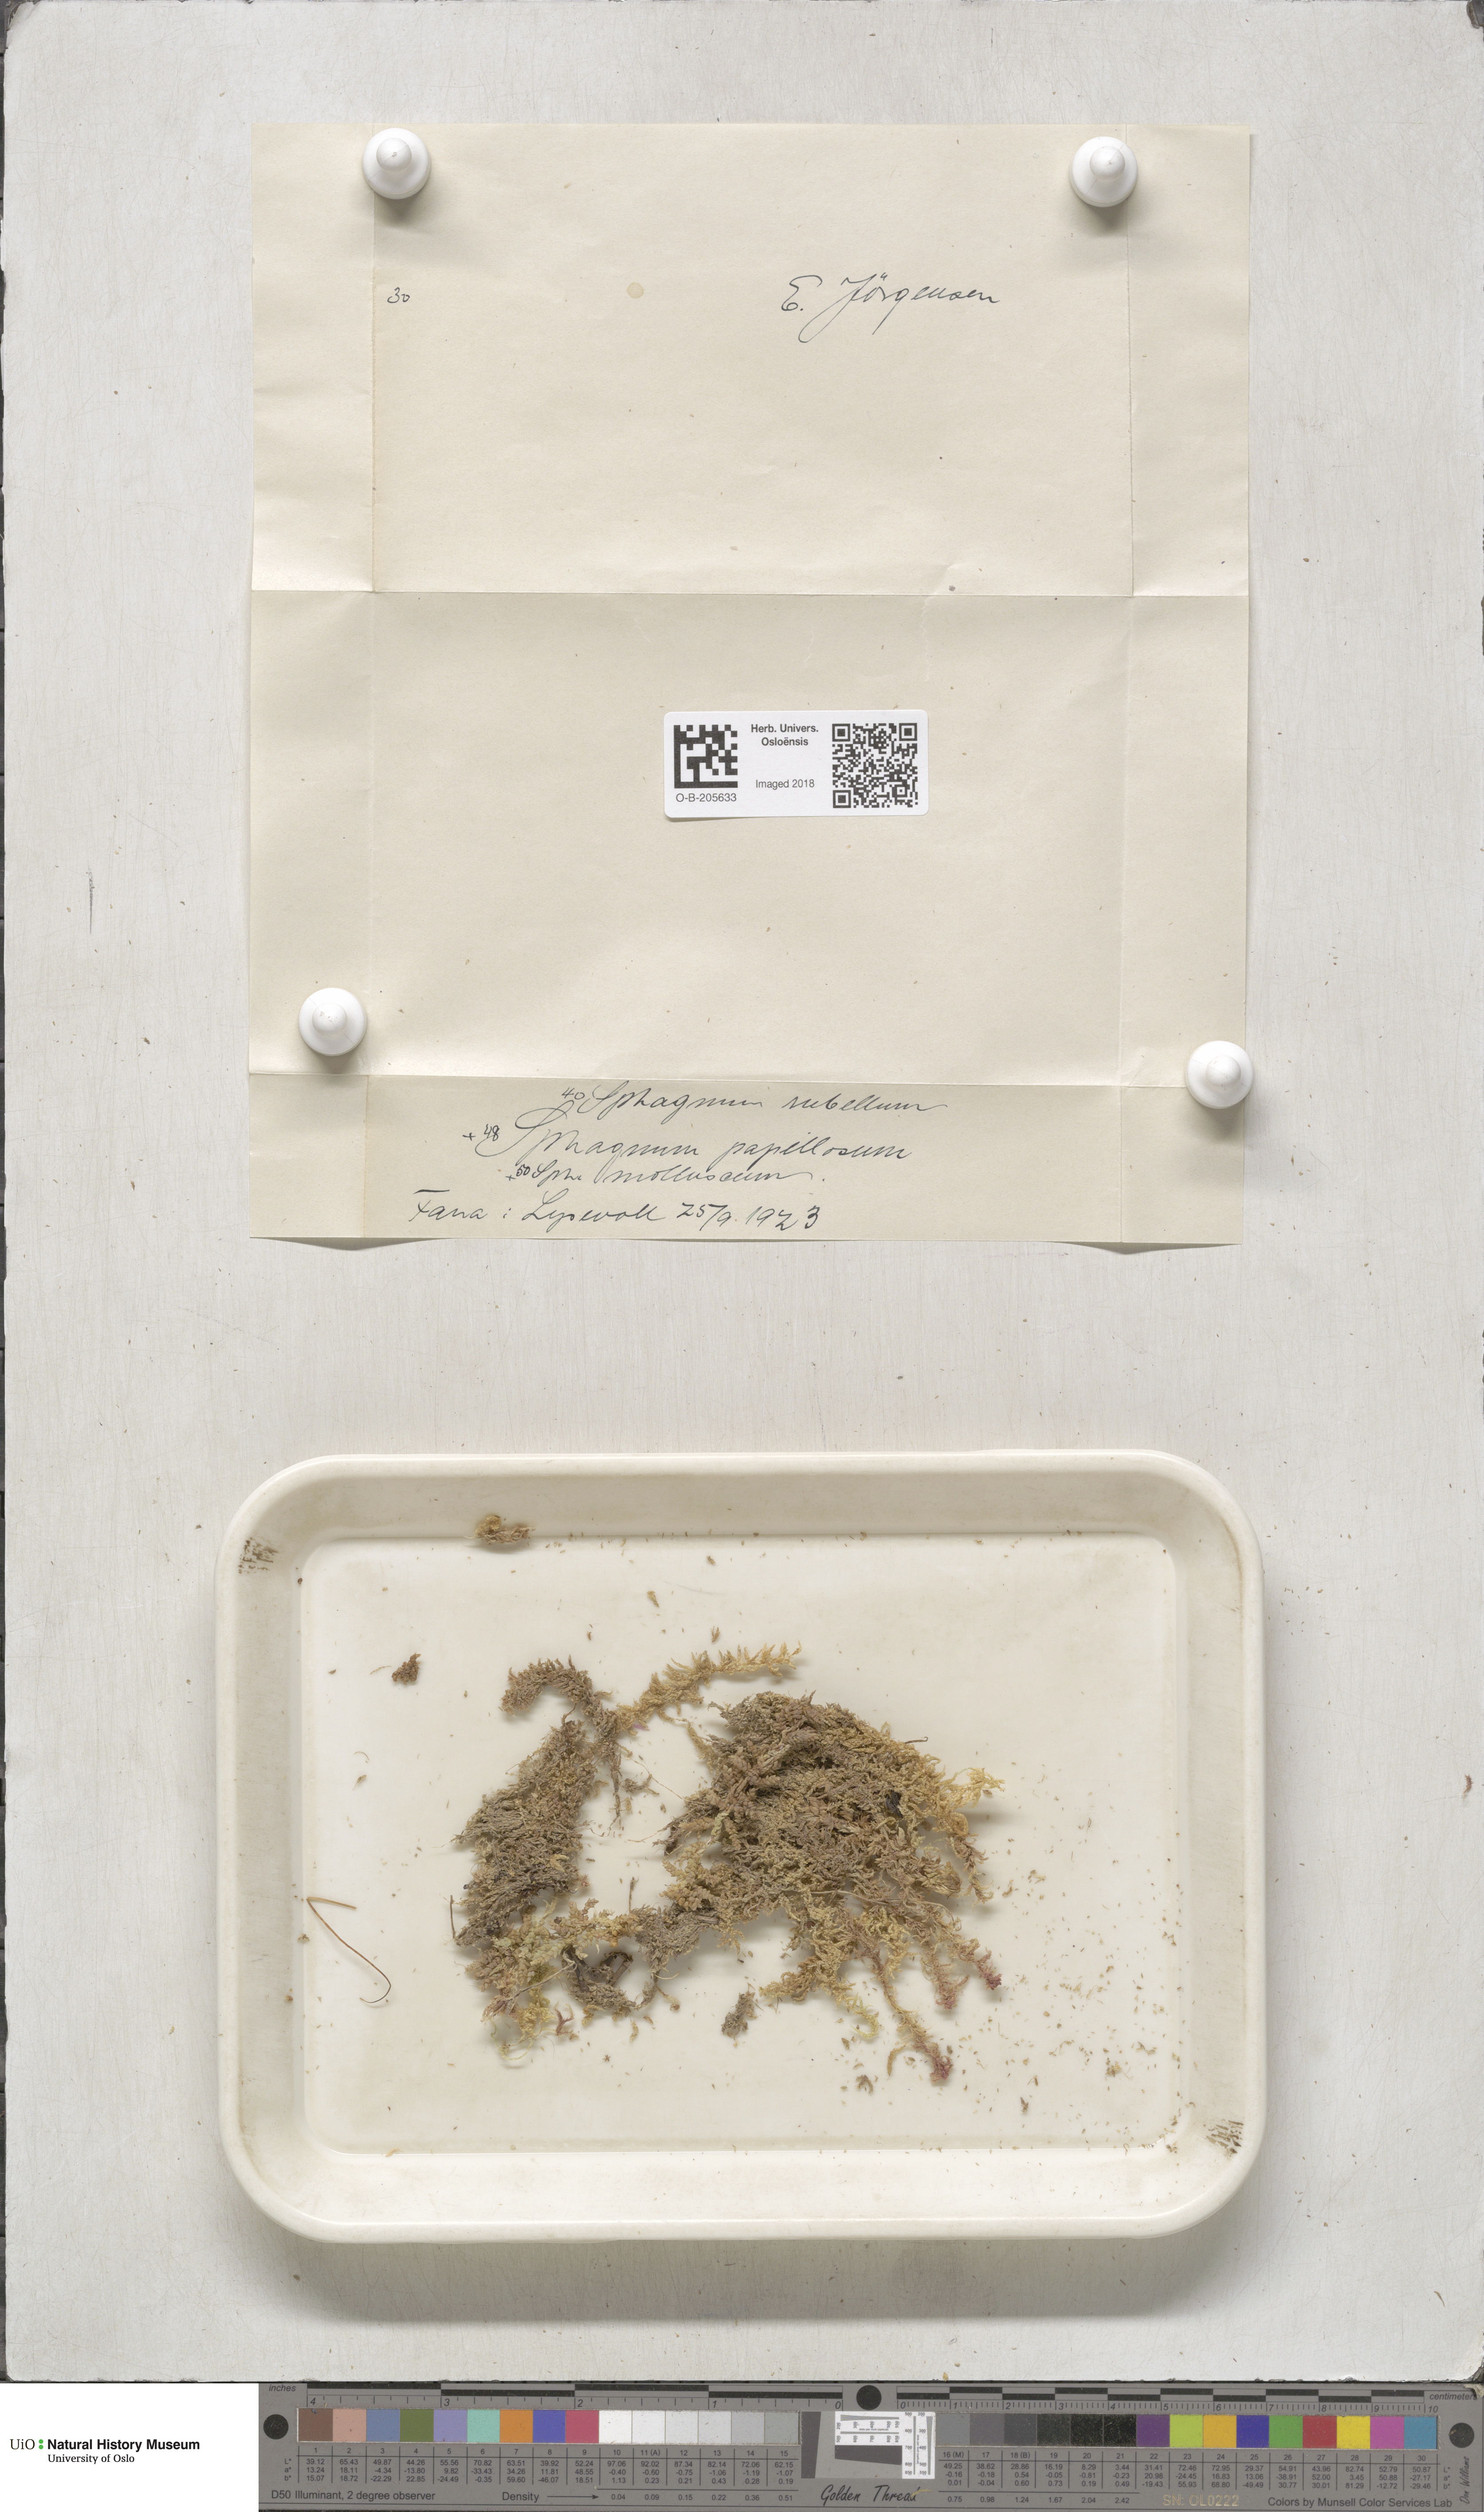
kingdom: Plantae
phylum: Bryophyta
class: Sphagnopsida
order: Sphagnales
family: Sphagnaceae
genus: Sphagnum
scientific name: Sphagnum rubellum
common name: Red peat moss
